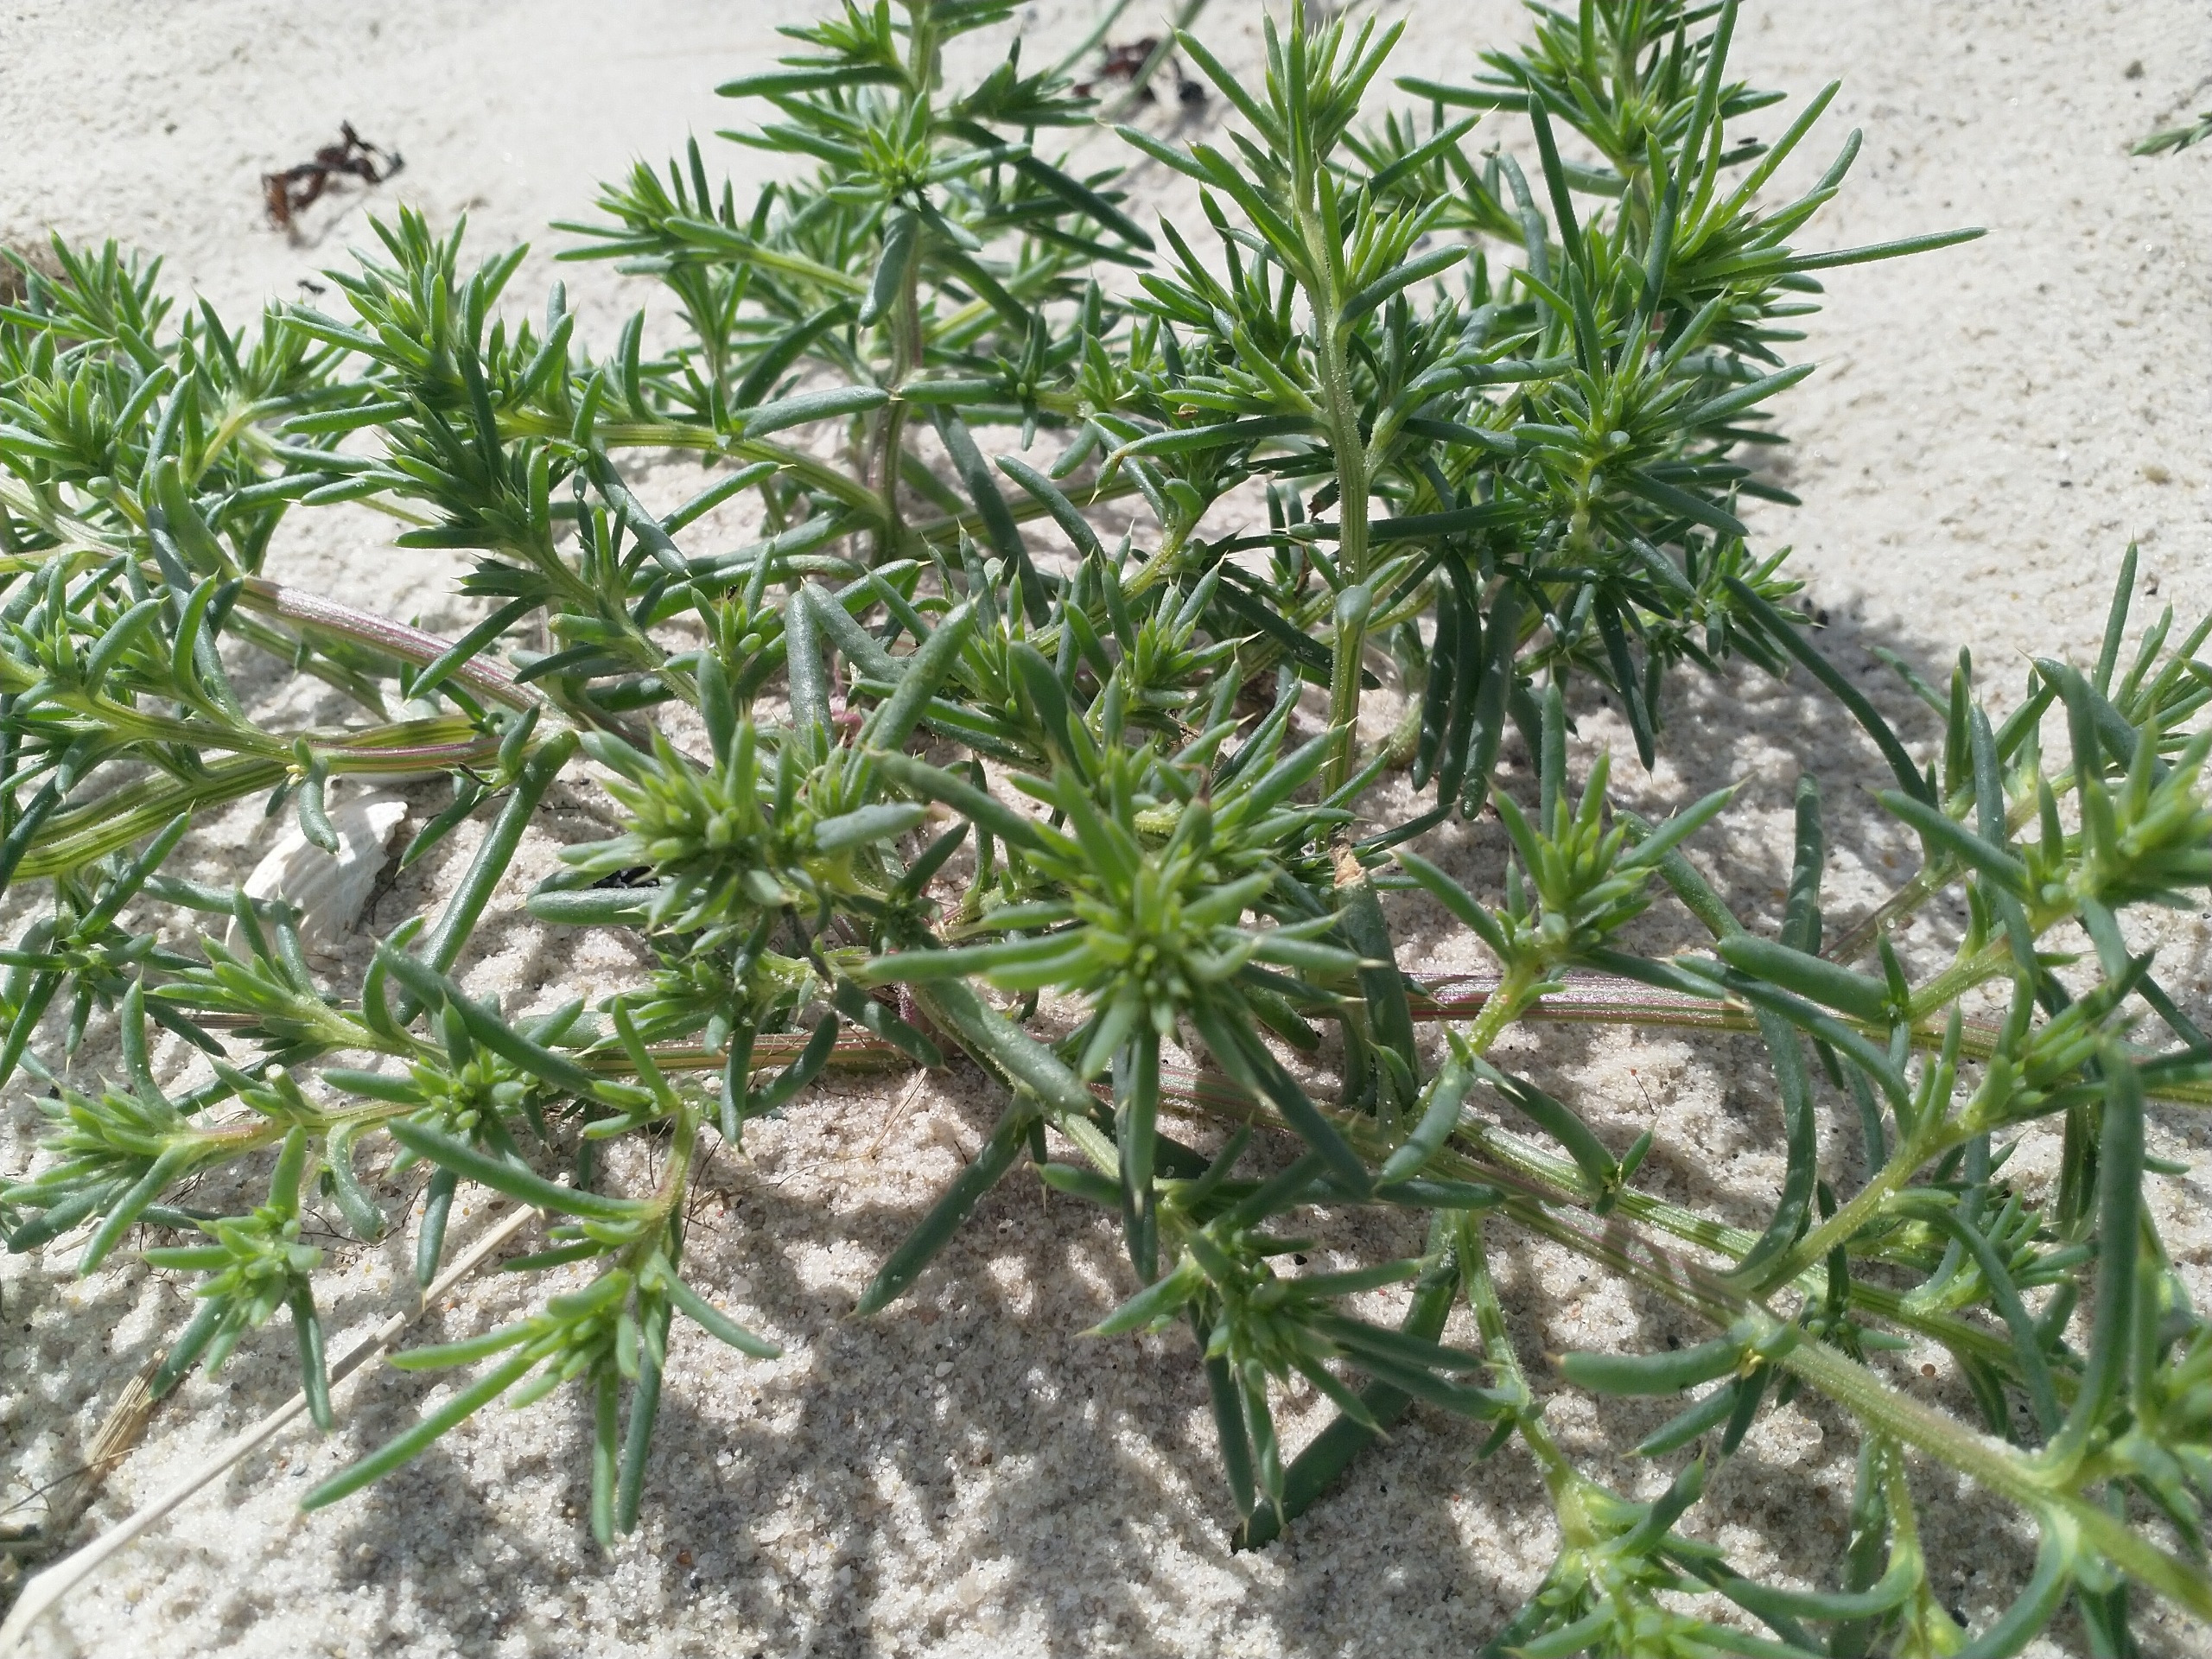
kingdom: Plantae
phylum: Tracheophyta
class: Magnoliopsida
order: Caryophyllales
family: Amaranthaceae
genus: Salsola
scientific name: Salsola kali
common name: Sodaurt
